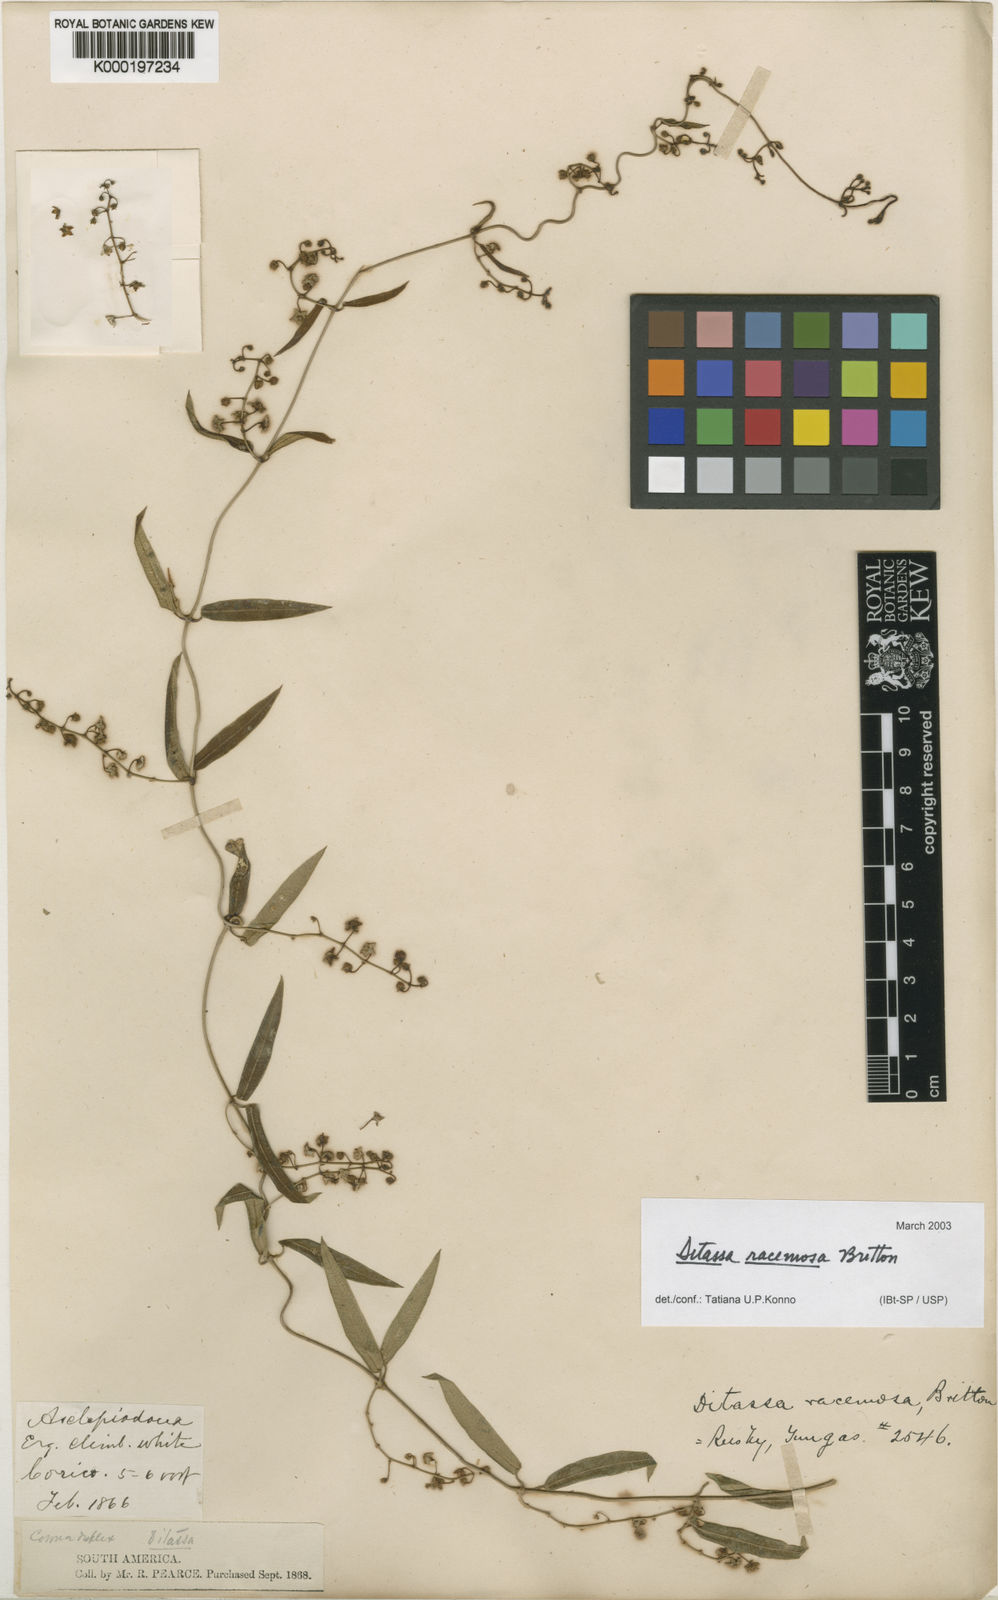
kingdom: Plantae
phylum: Tracheophyta
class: Magnoliopsida
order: Gentianales
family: Apocynaceae
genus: Ditassa
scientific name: Ditassa racemosa
